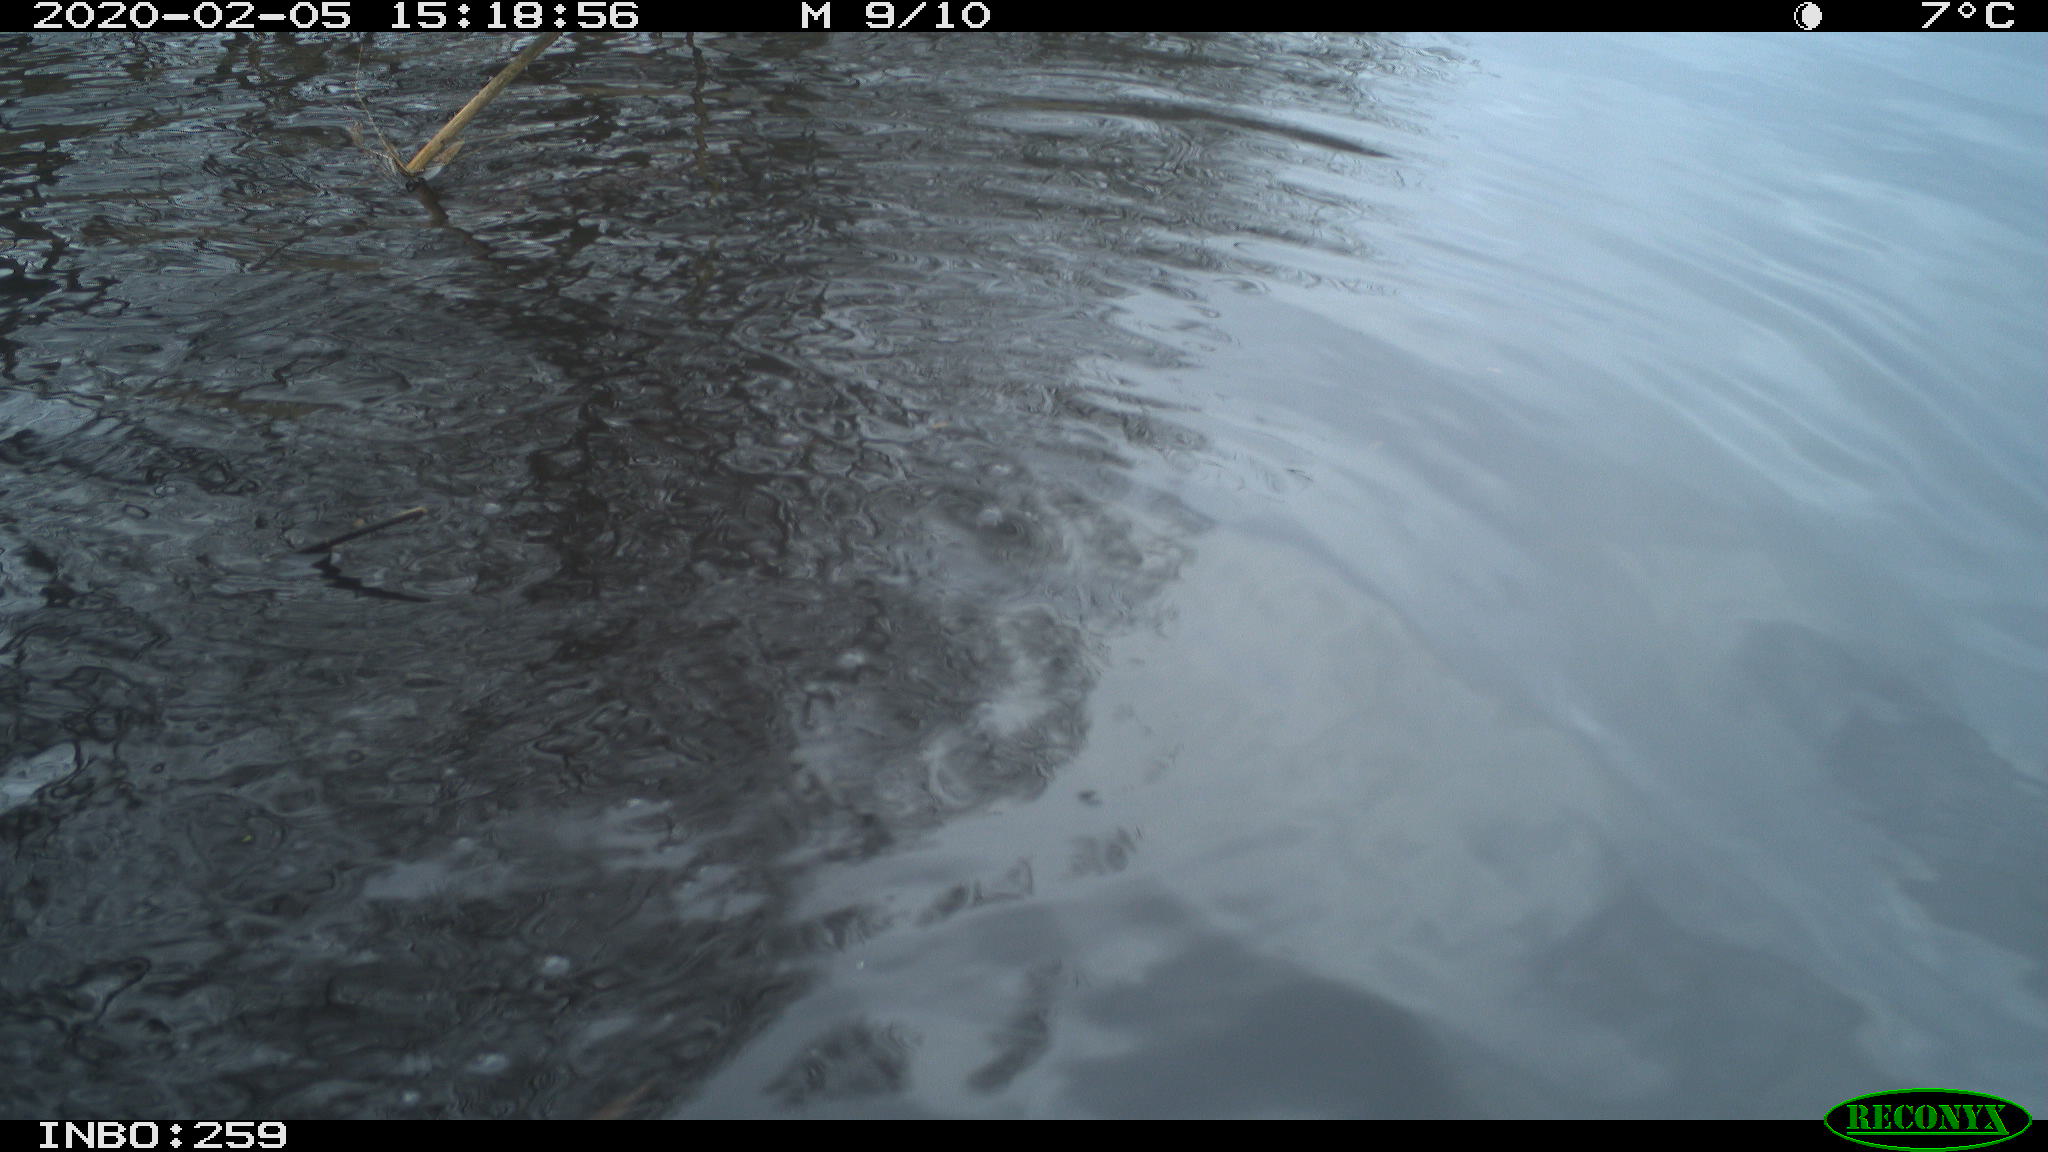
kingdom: Animalia
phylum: Chordata
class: Aves
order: Gruiformes
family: Rallidae
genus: Gallinula
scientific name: Gallinula chloropus
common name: Common moorhen
